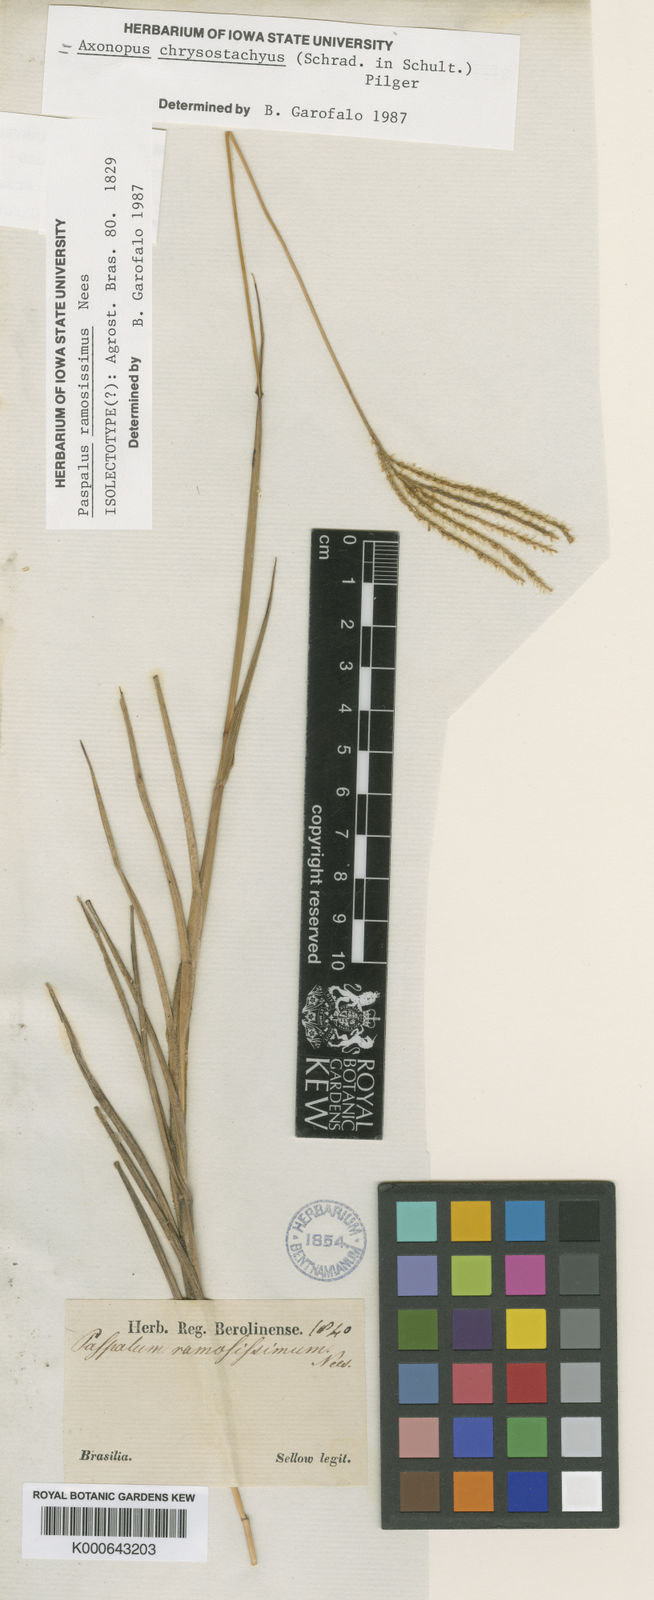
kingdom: Plantae
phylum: Tracheophyta
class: Liliopsida
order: Poales
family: Poaceae
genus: Axonopus
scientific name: Axonopus aureus
